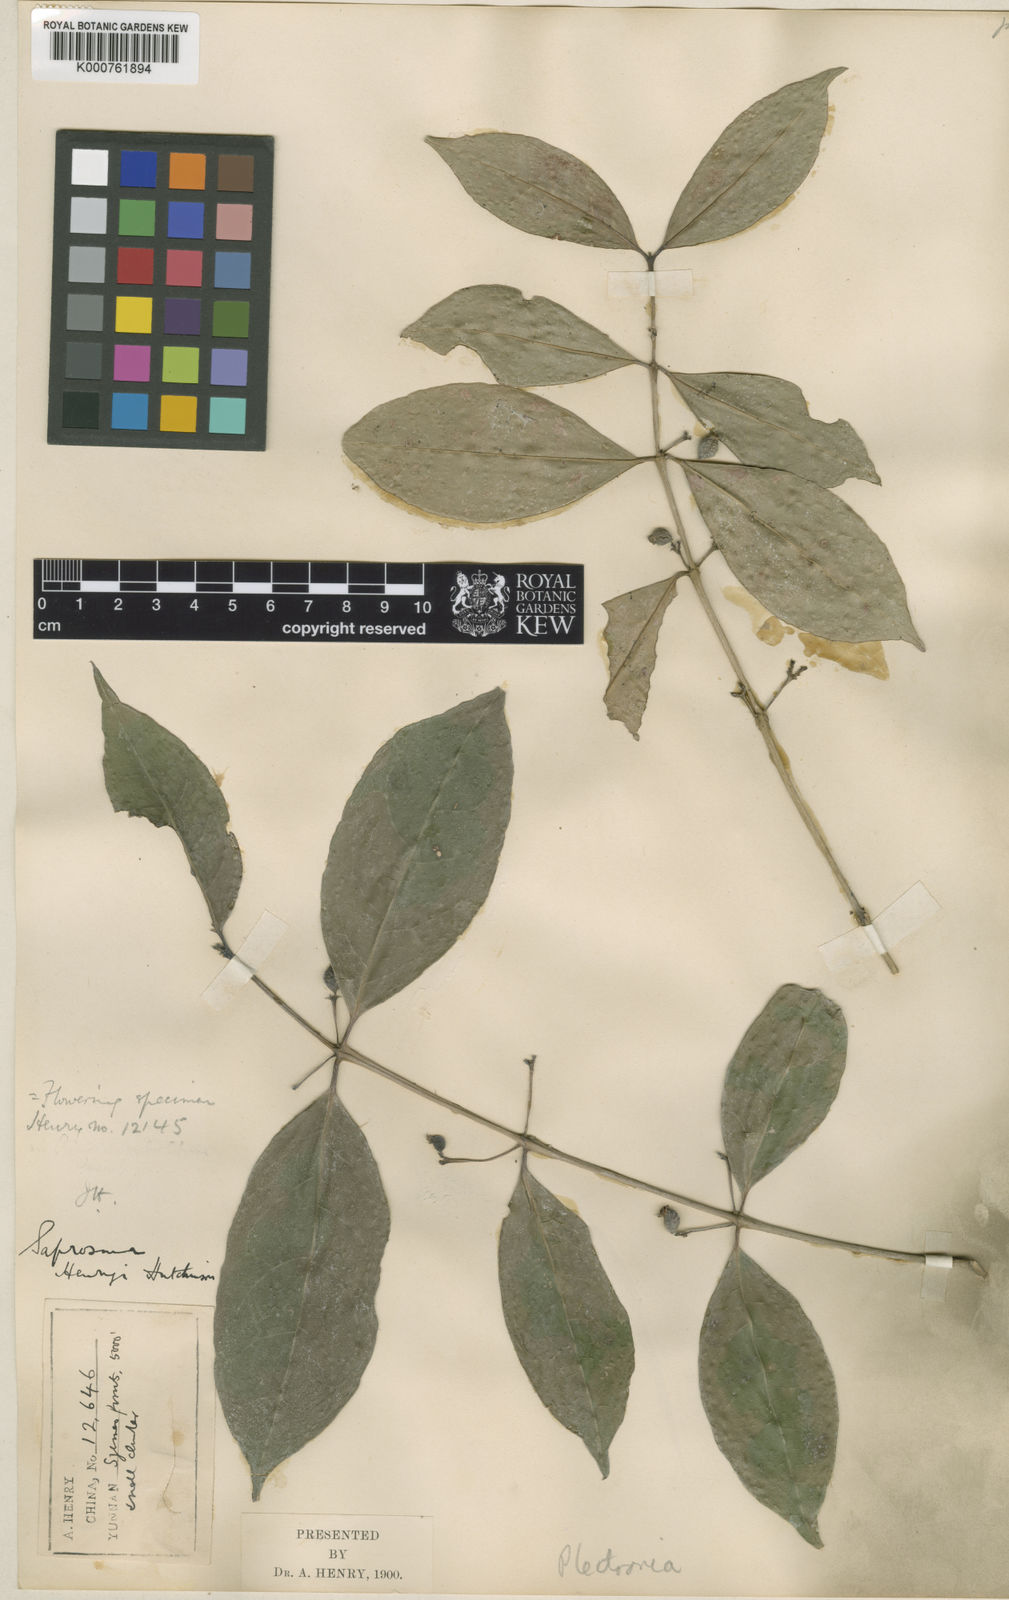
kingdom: Plantae
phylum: Tracheophyta
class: Magnoliopsida
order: Gentianales
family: Rubiaceae
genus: Saprosma
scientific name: Saprosma henryi
